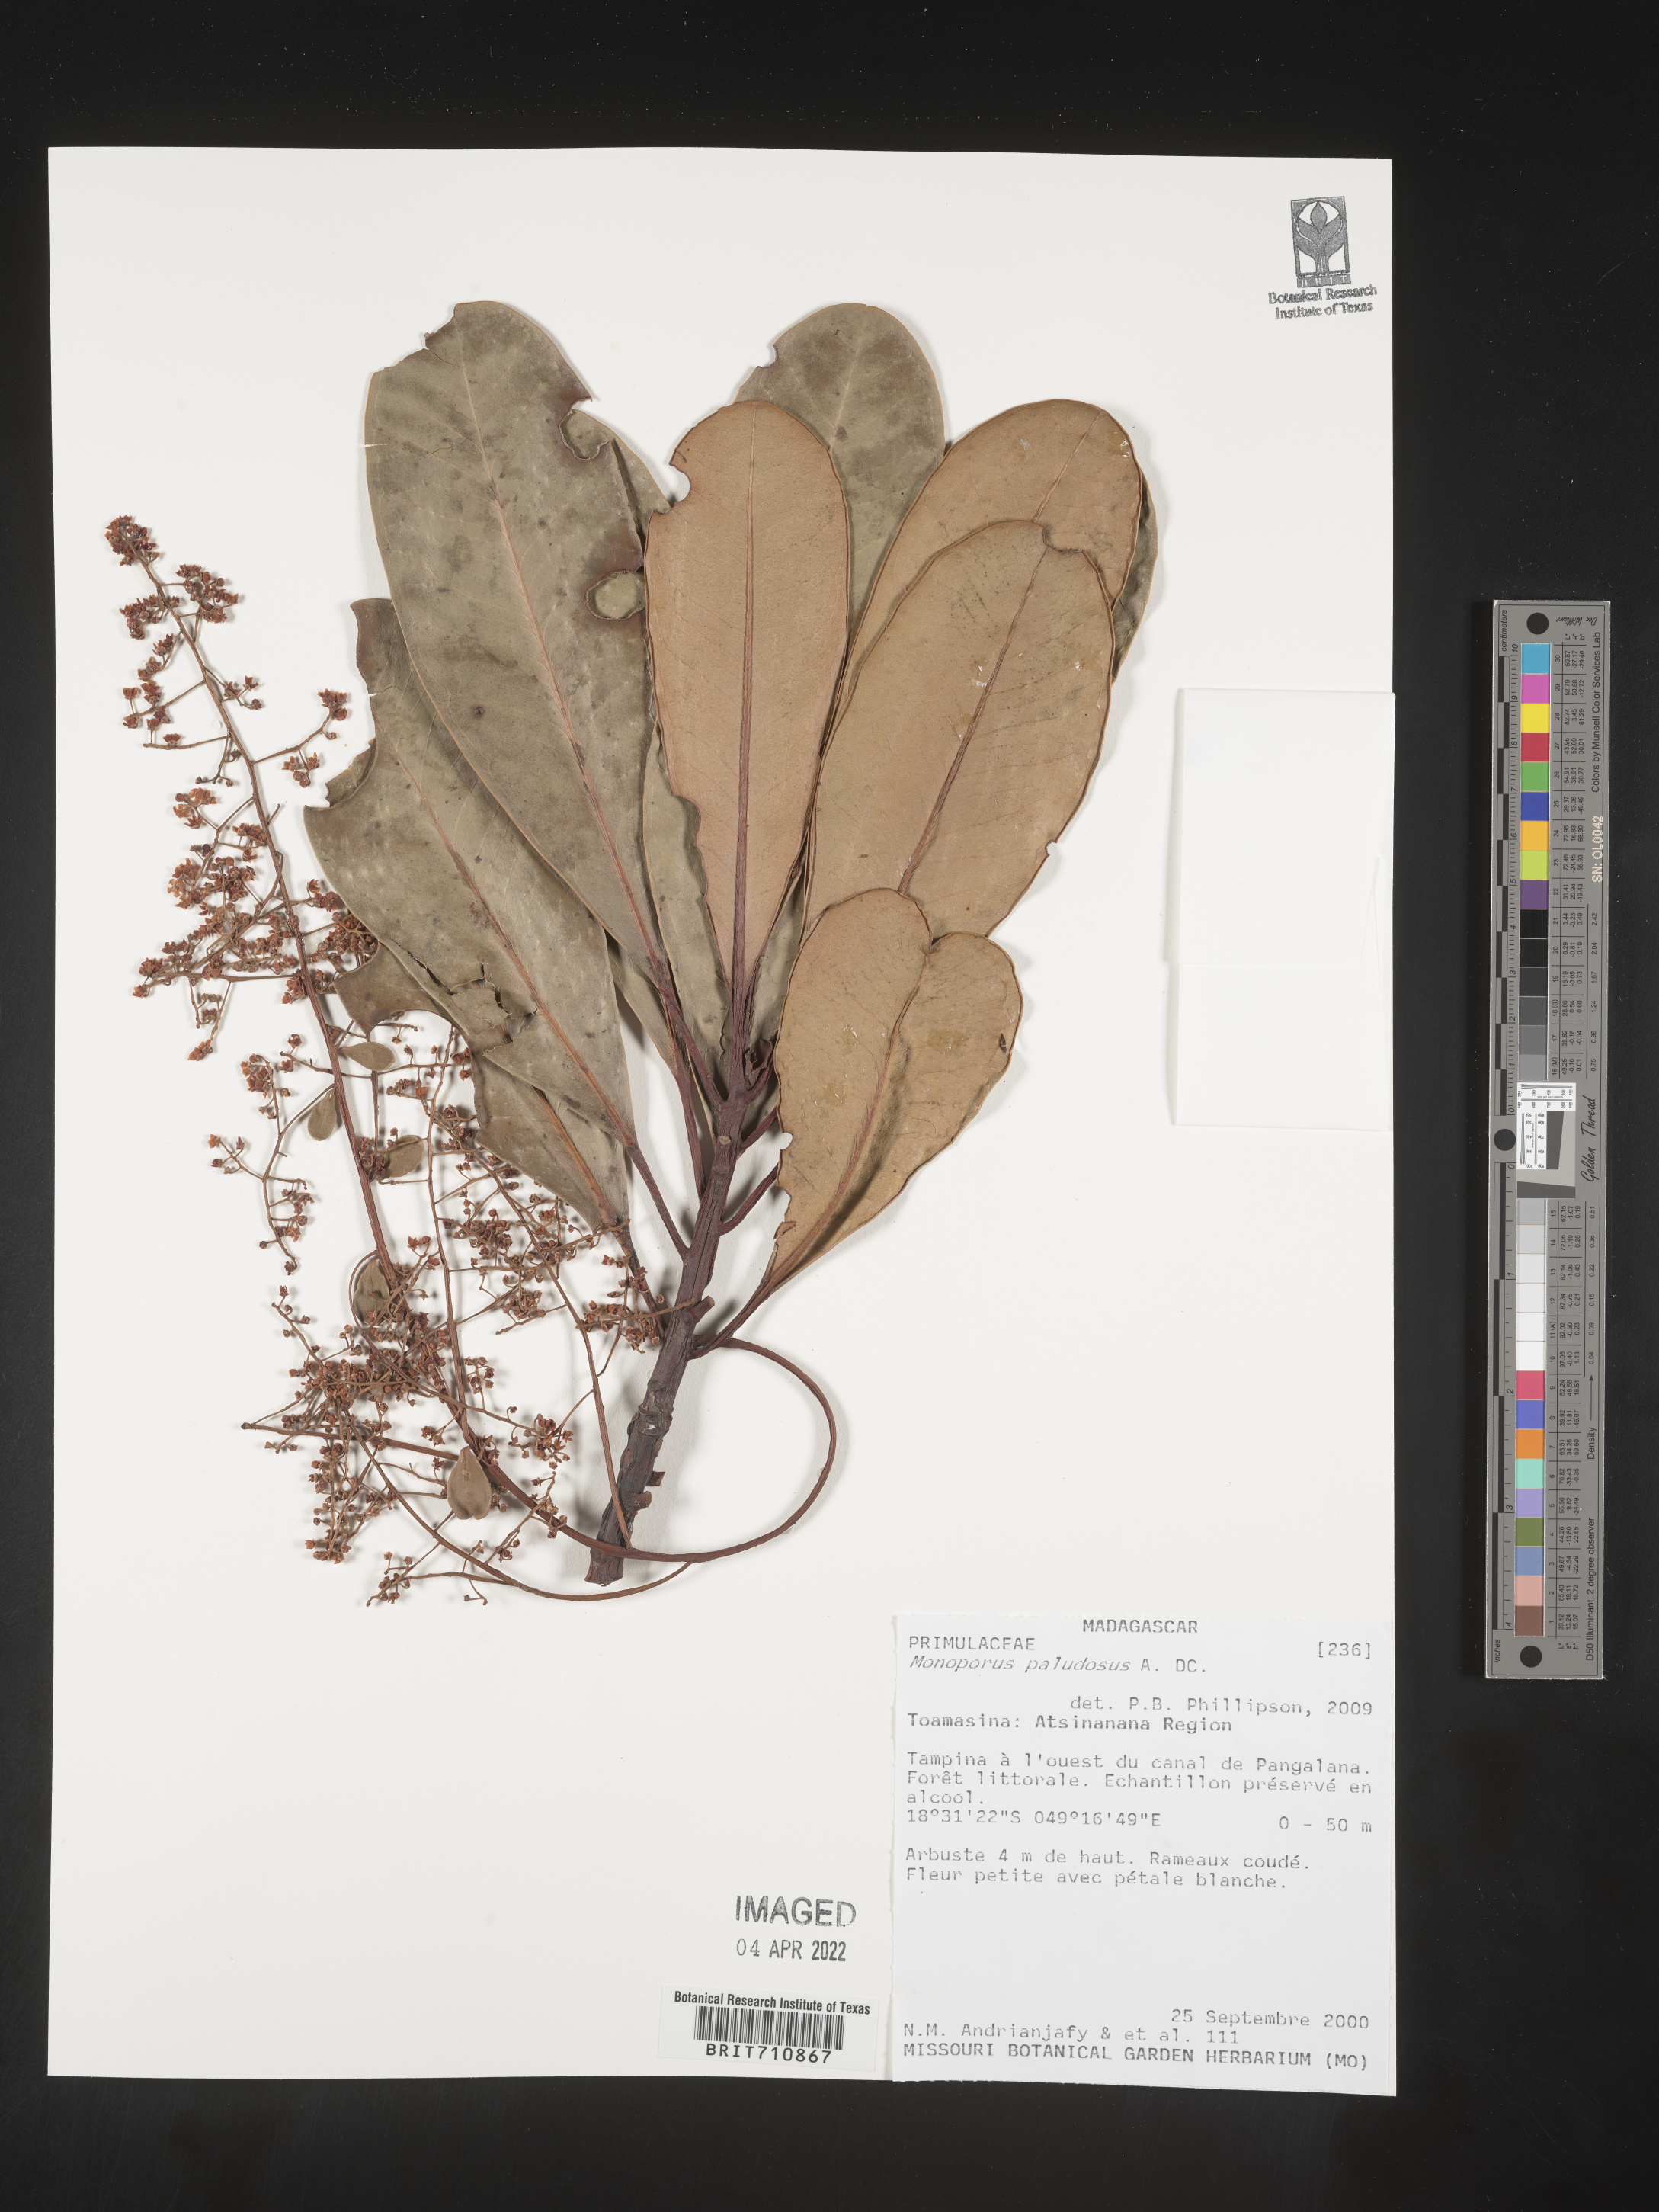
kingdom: Plantae
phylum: Tracheophyta
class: Magnoliopsida
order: Ericales
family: Primulaceae
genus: Monoporus
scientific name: Monoporus
